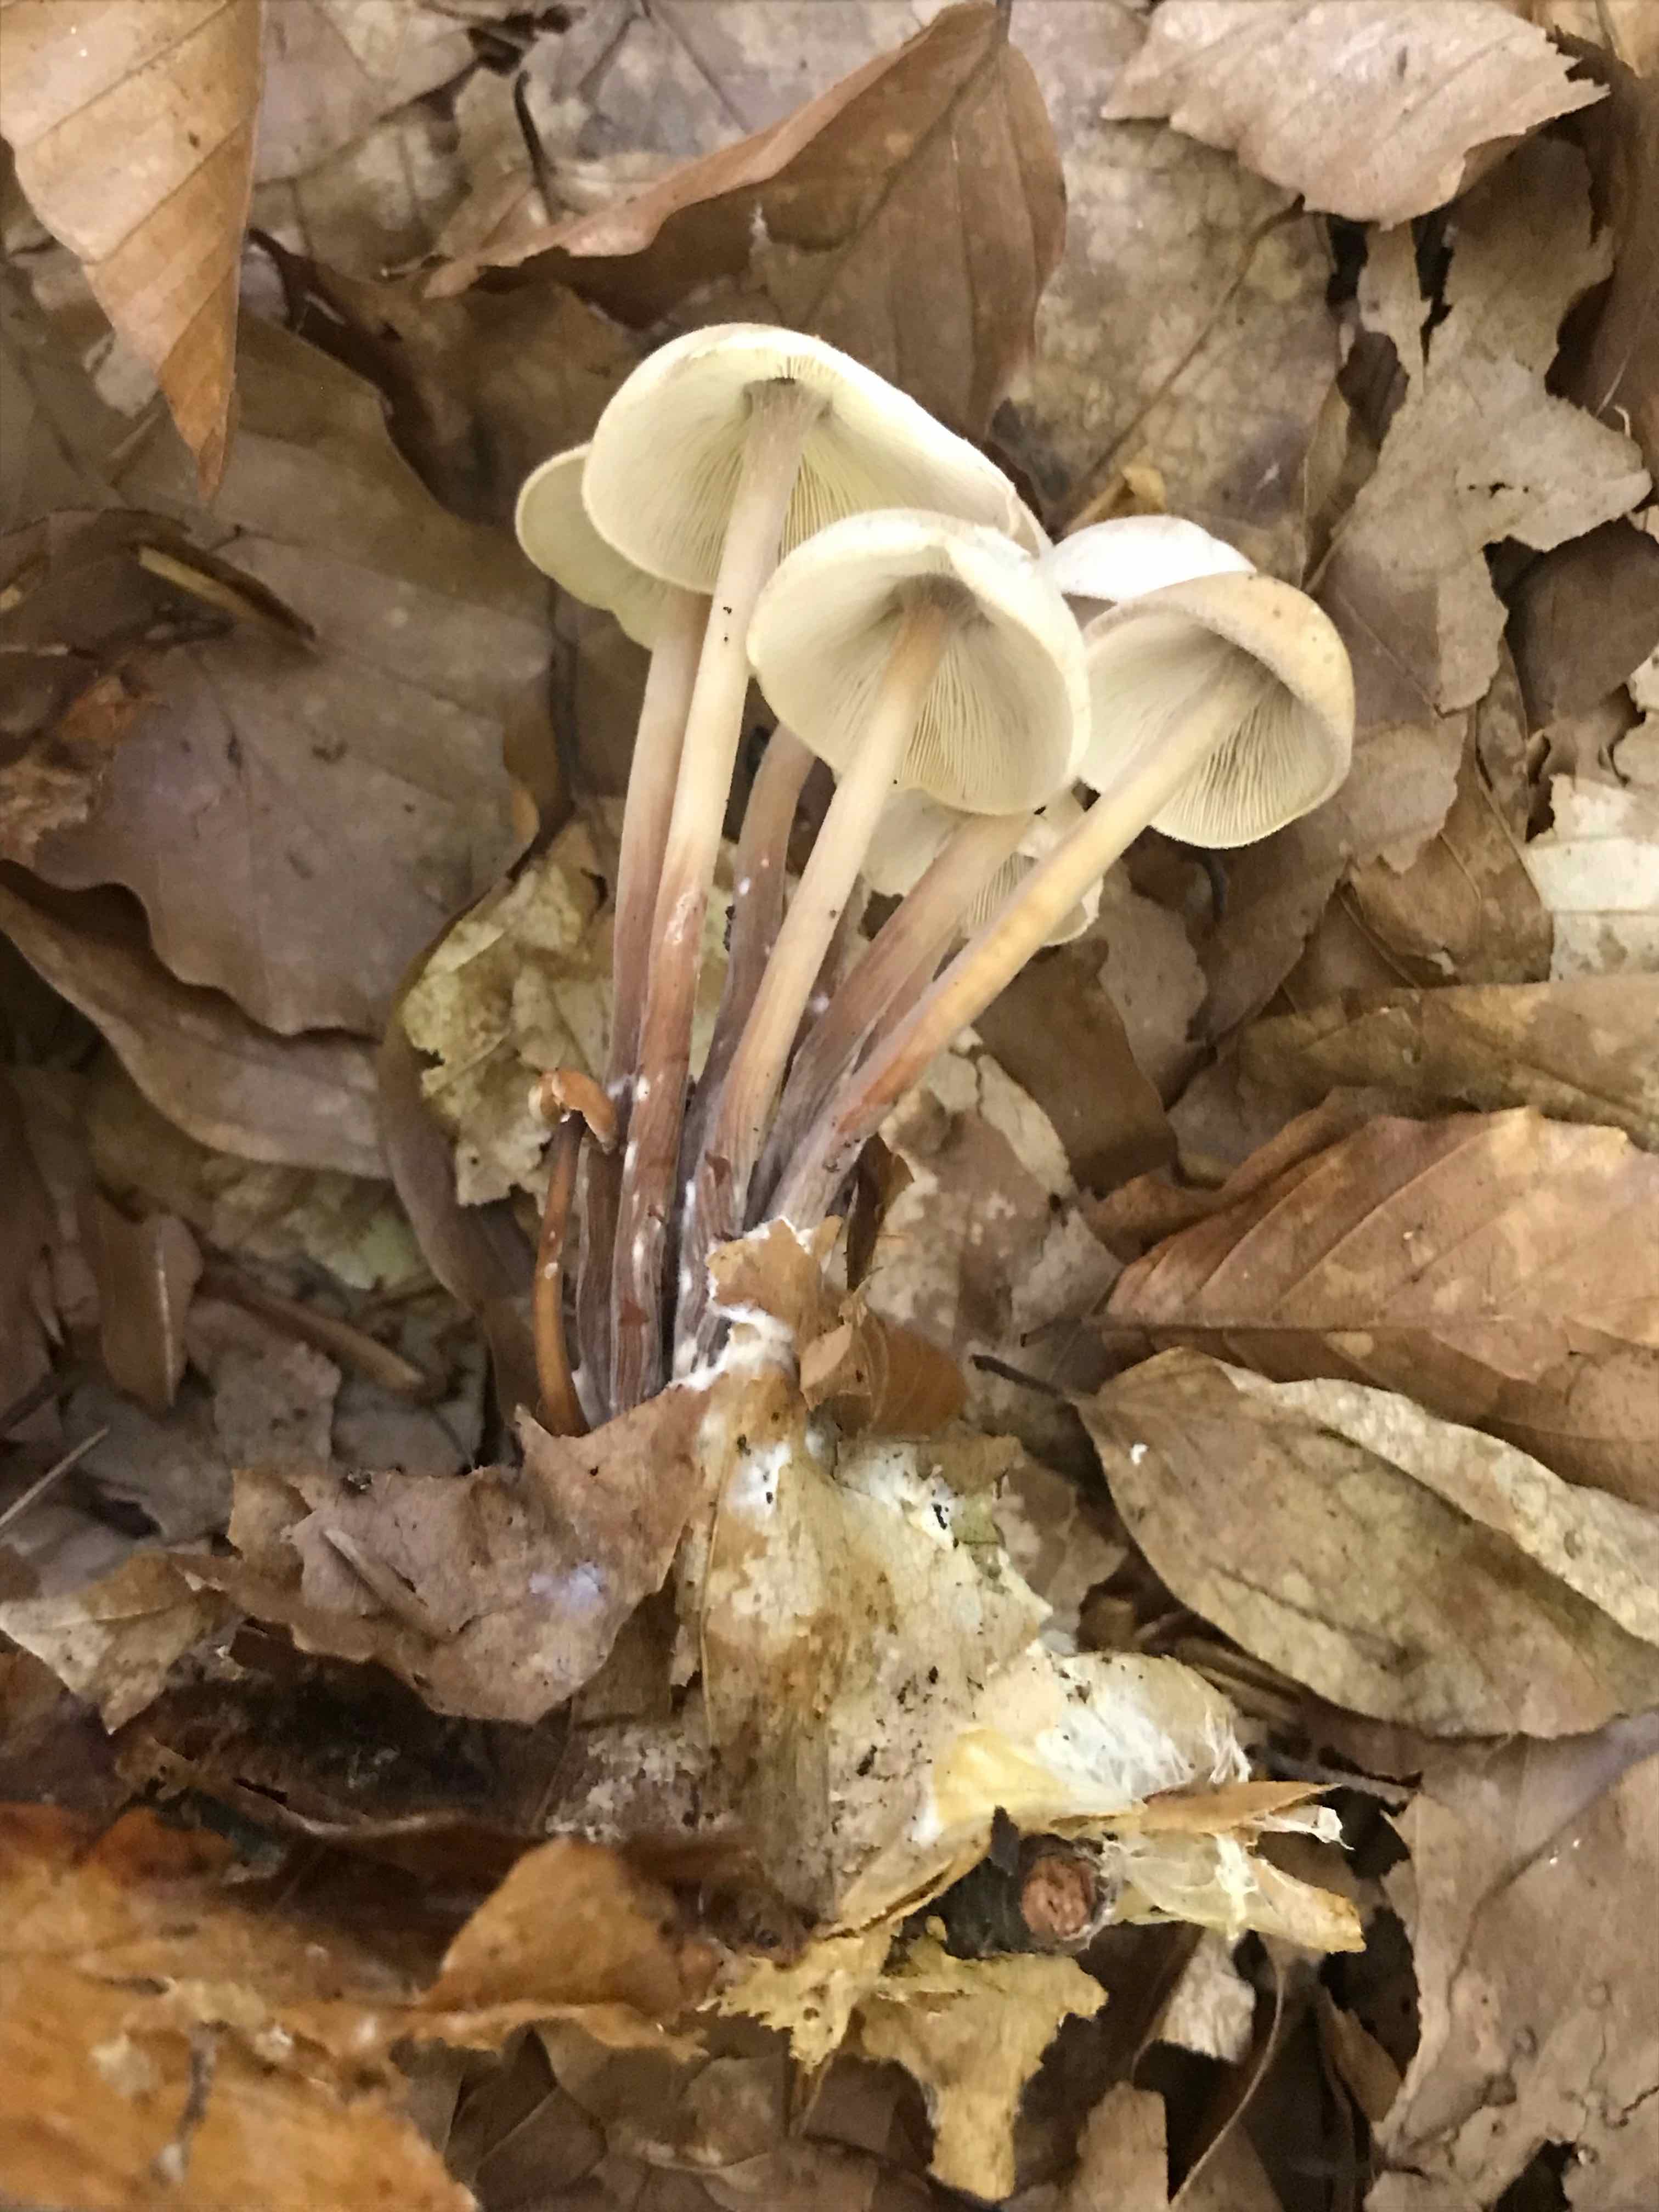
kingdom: Fungi
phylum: Basidiomycota
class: Agaricomycetes
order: Agaricales
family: Omphalotaceae
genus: Collybiopsis
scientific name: Collybiopsis confluens
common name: knippe-fladhat
